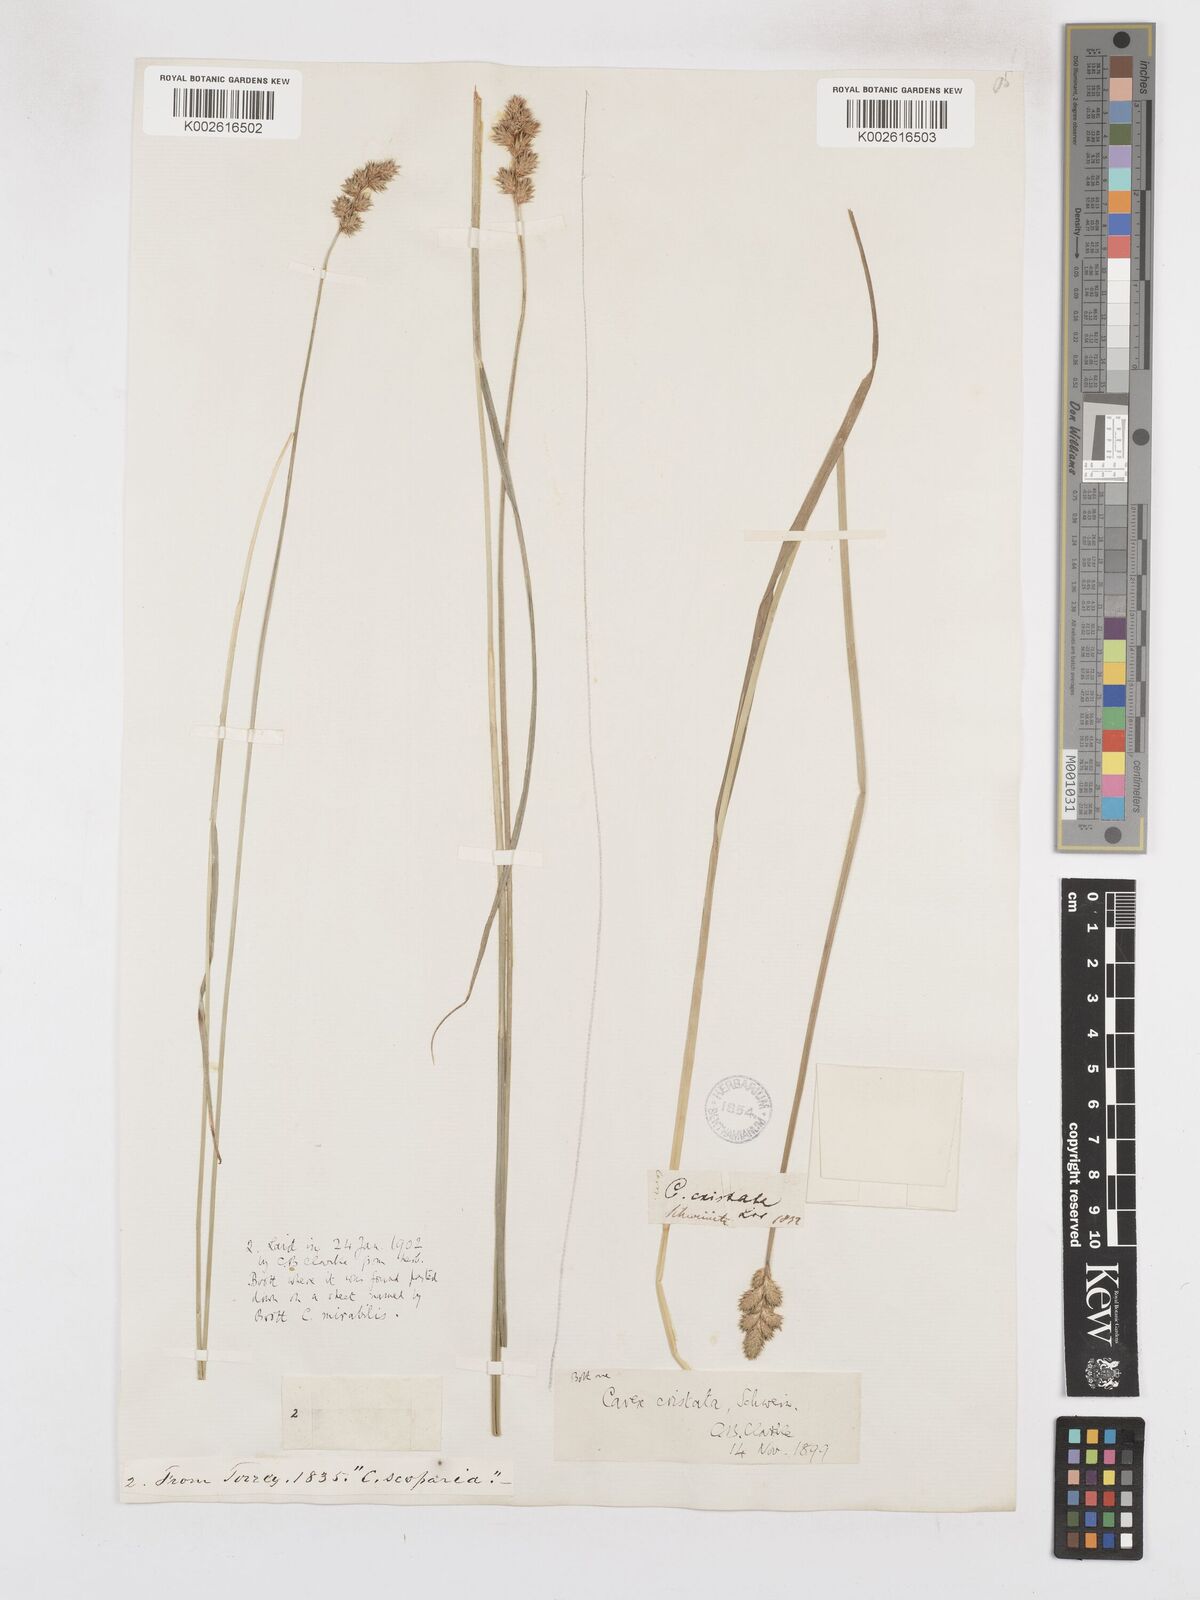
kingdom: Plantae
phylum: Tracheophyta
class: Liliopsida
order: Poales
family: Cyperaceae
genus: Carex
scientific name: Carex cristatella
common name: Crested oval sedge
